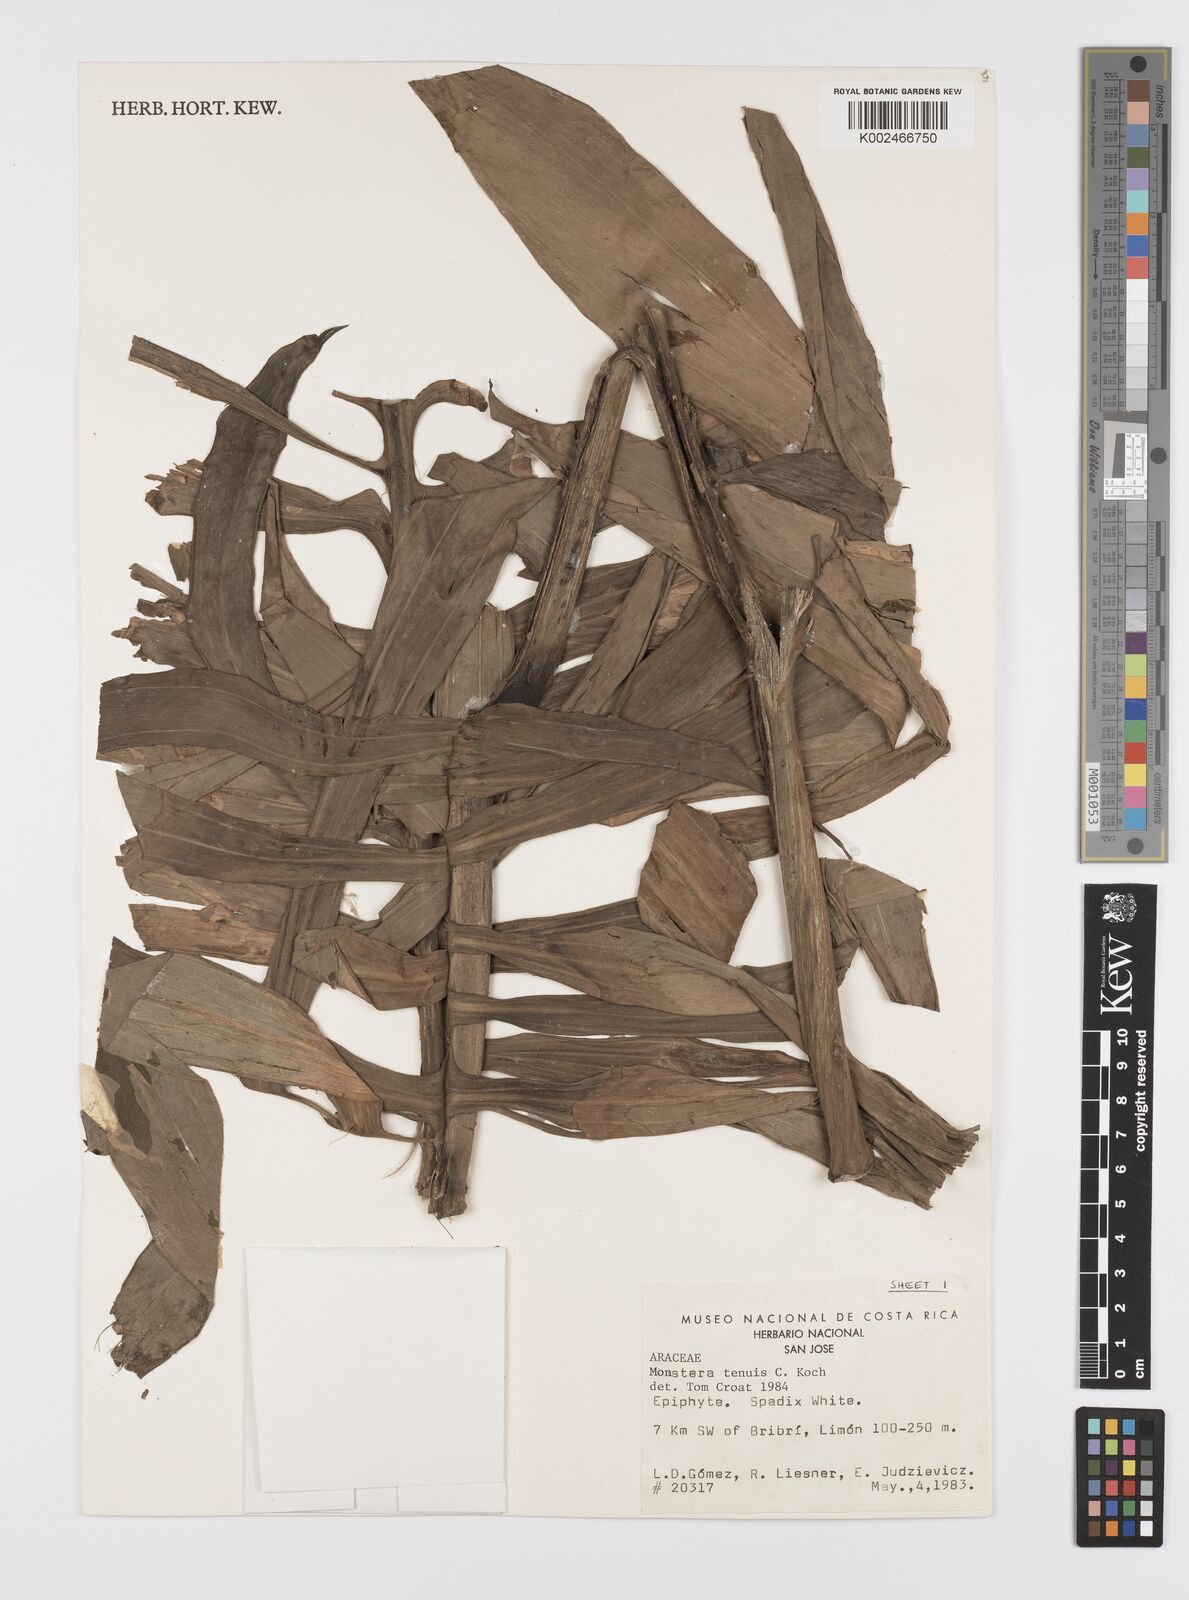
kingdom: Plantae
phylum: Tracheophyta
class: Liliopsida
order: Alismatales
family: Araceae
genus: Monstera
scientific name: Monstera tenuis
